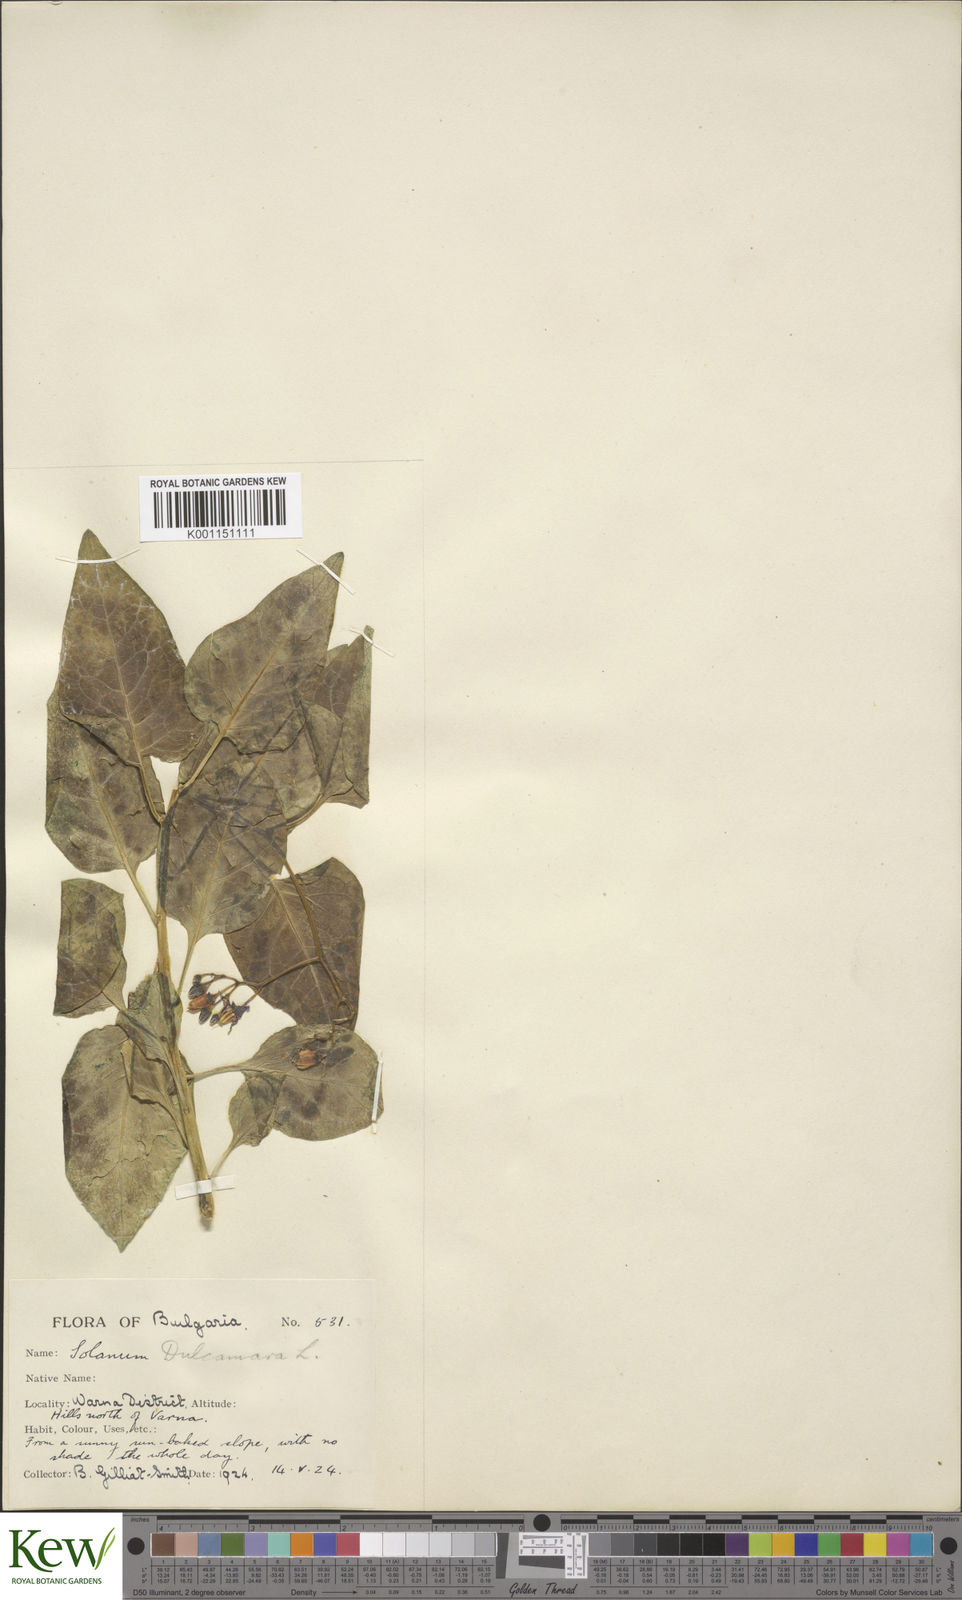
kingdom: Plantae
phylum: Tracheophyta
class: Magnoliopsida
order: Solanales
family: Solanaceae
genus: Solanum
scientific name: Solanum dulcamara
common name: Climbing nightshade
